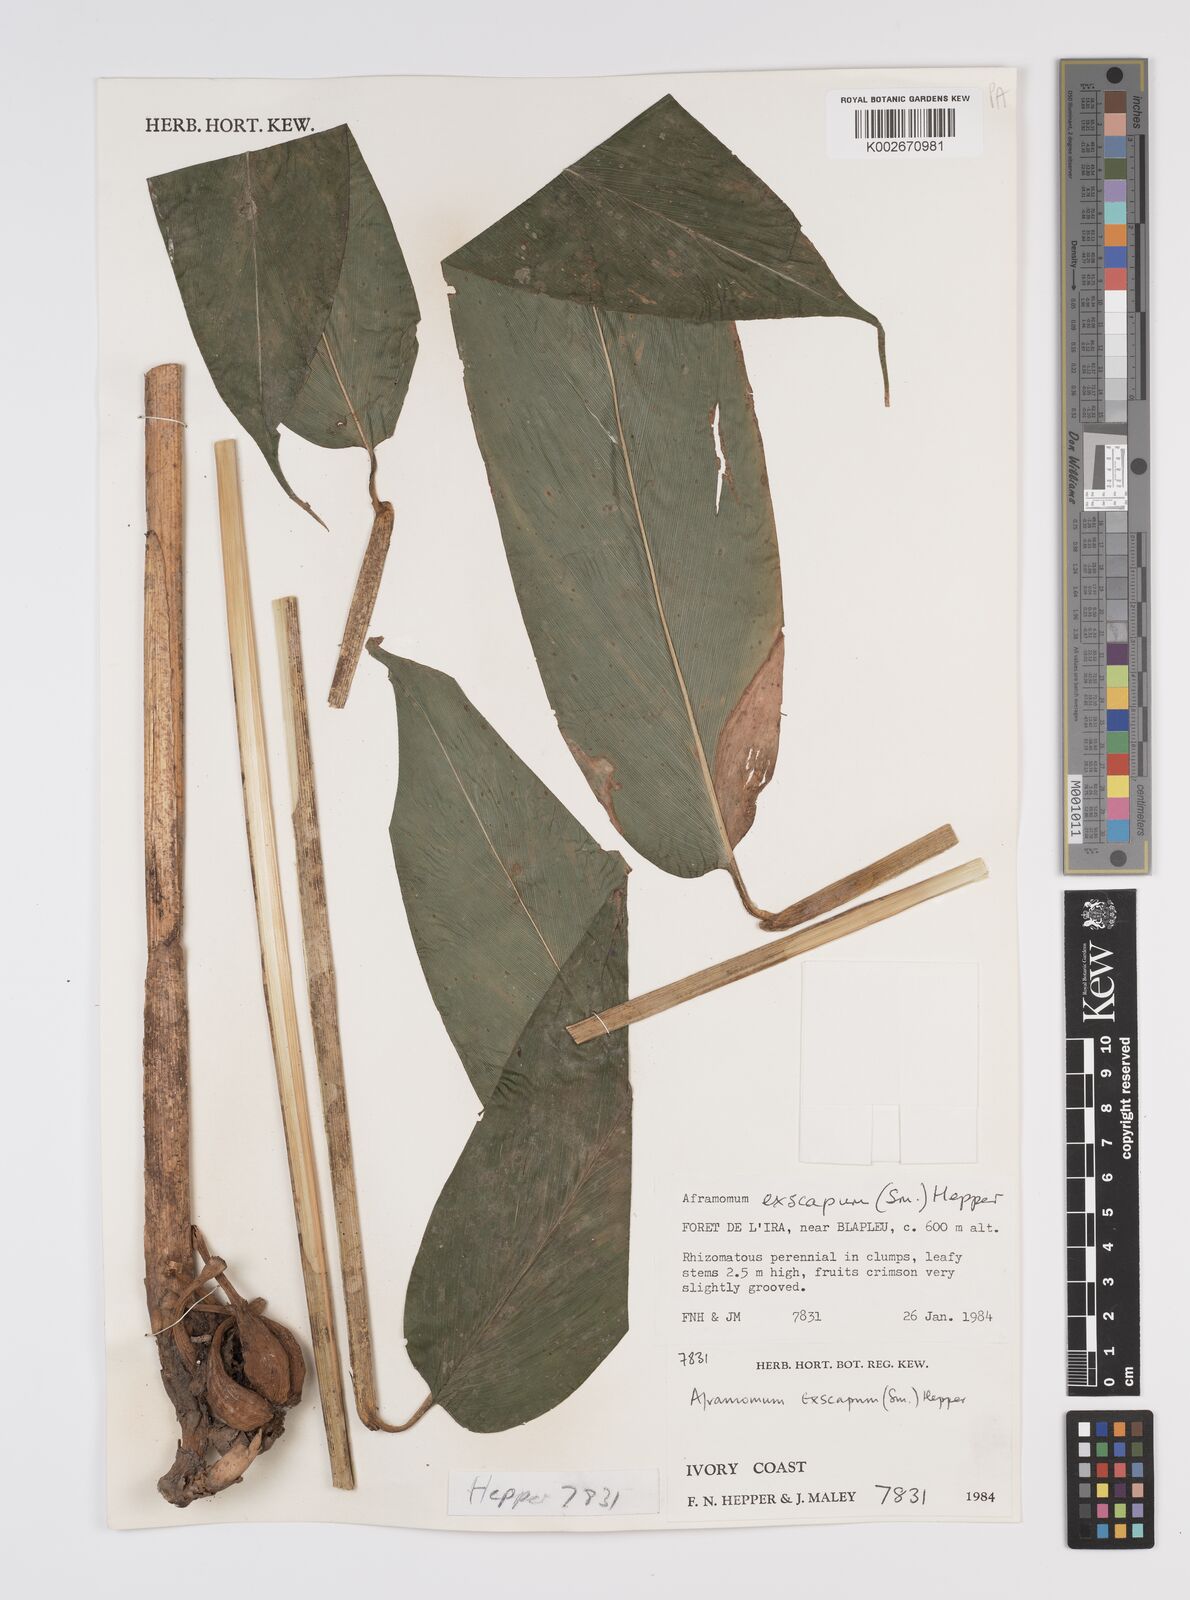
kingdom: Plantae
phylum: Tracheophyta
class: Liliopsida
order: Zingiberales
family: Zingiberaceae
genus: Aframomum
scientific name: Aframomum exscapum
